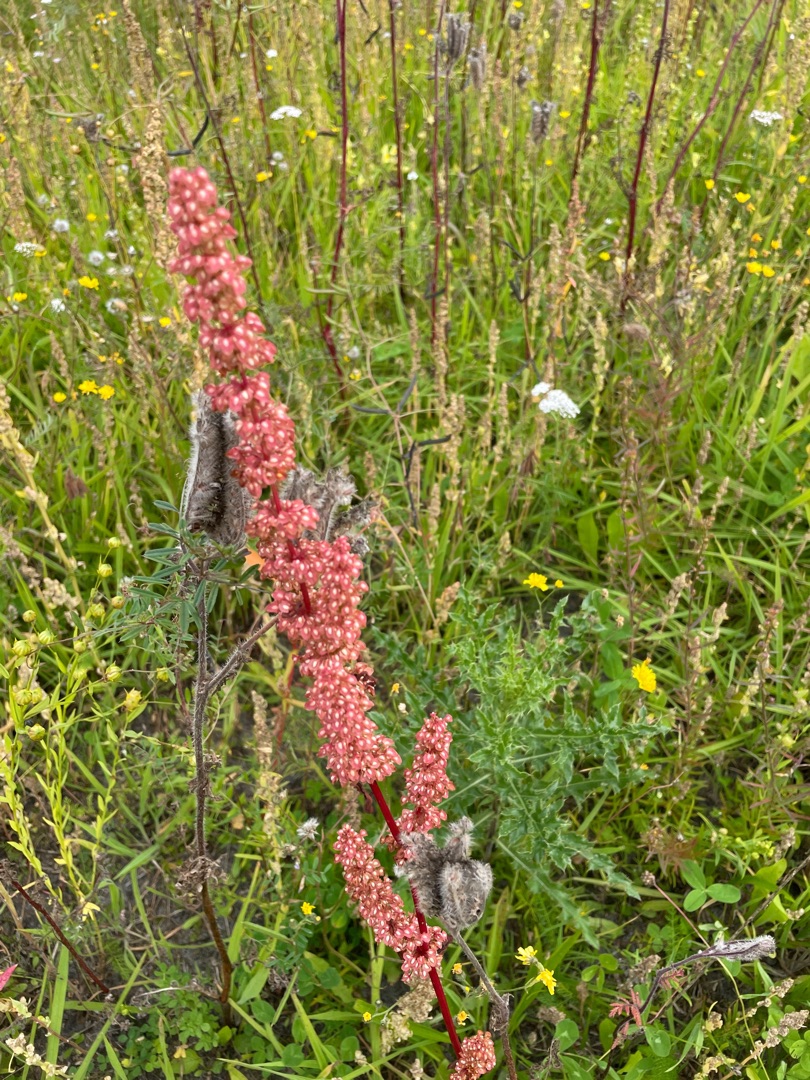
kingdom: Plantae
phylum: Tracheophyta
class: Magnoliopsida
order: Caryophyllales
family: Polygonaceae
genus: Rumex
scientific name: Rumex crispus
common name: Kruset skræppe
